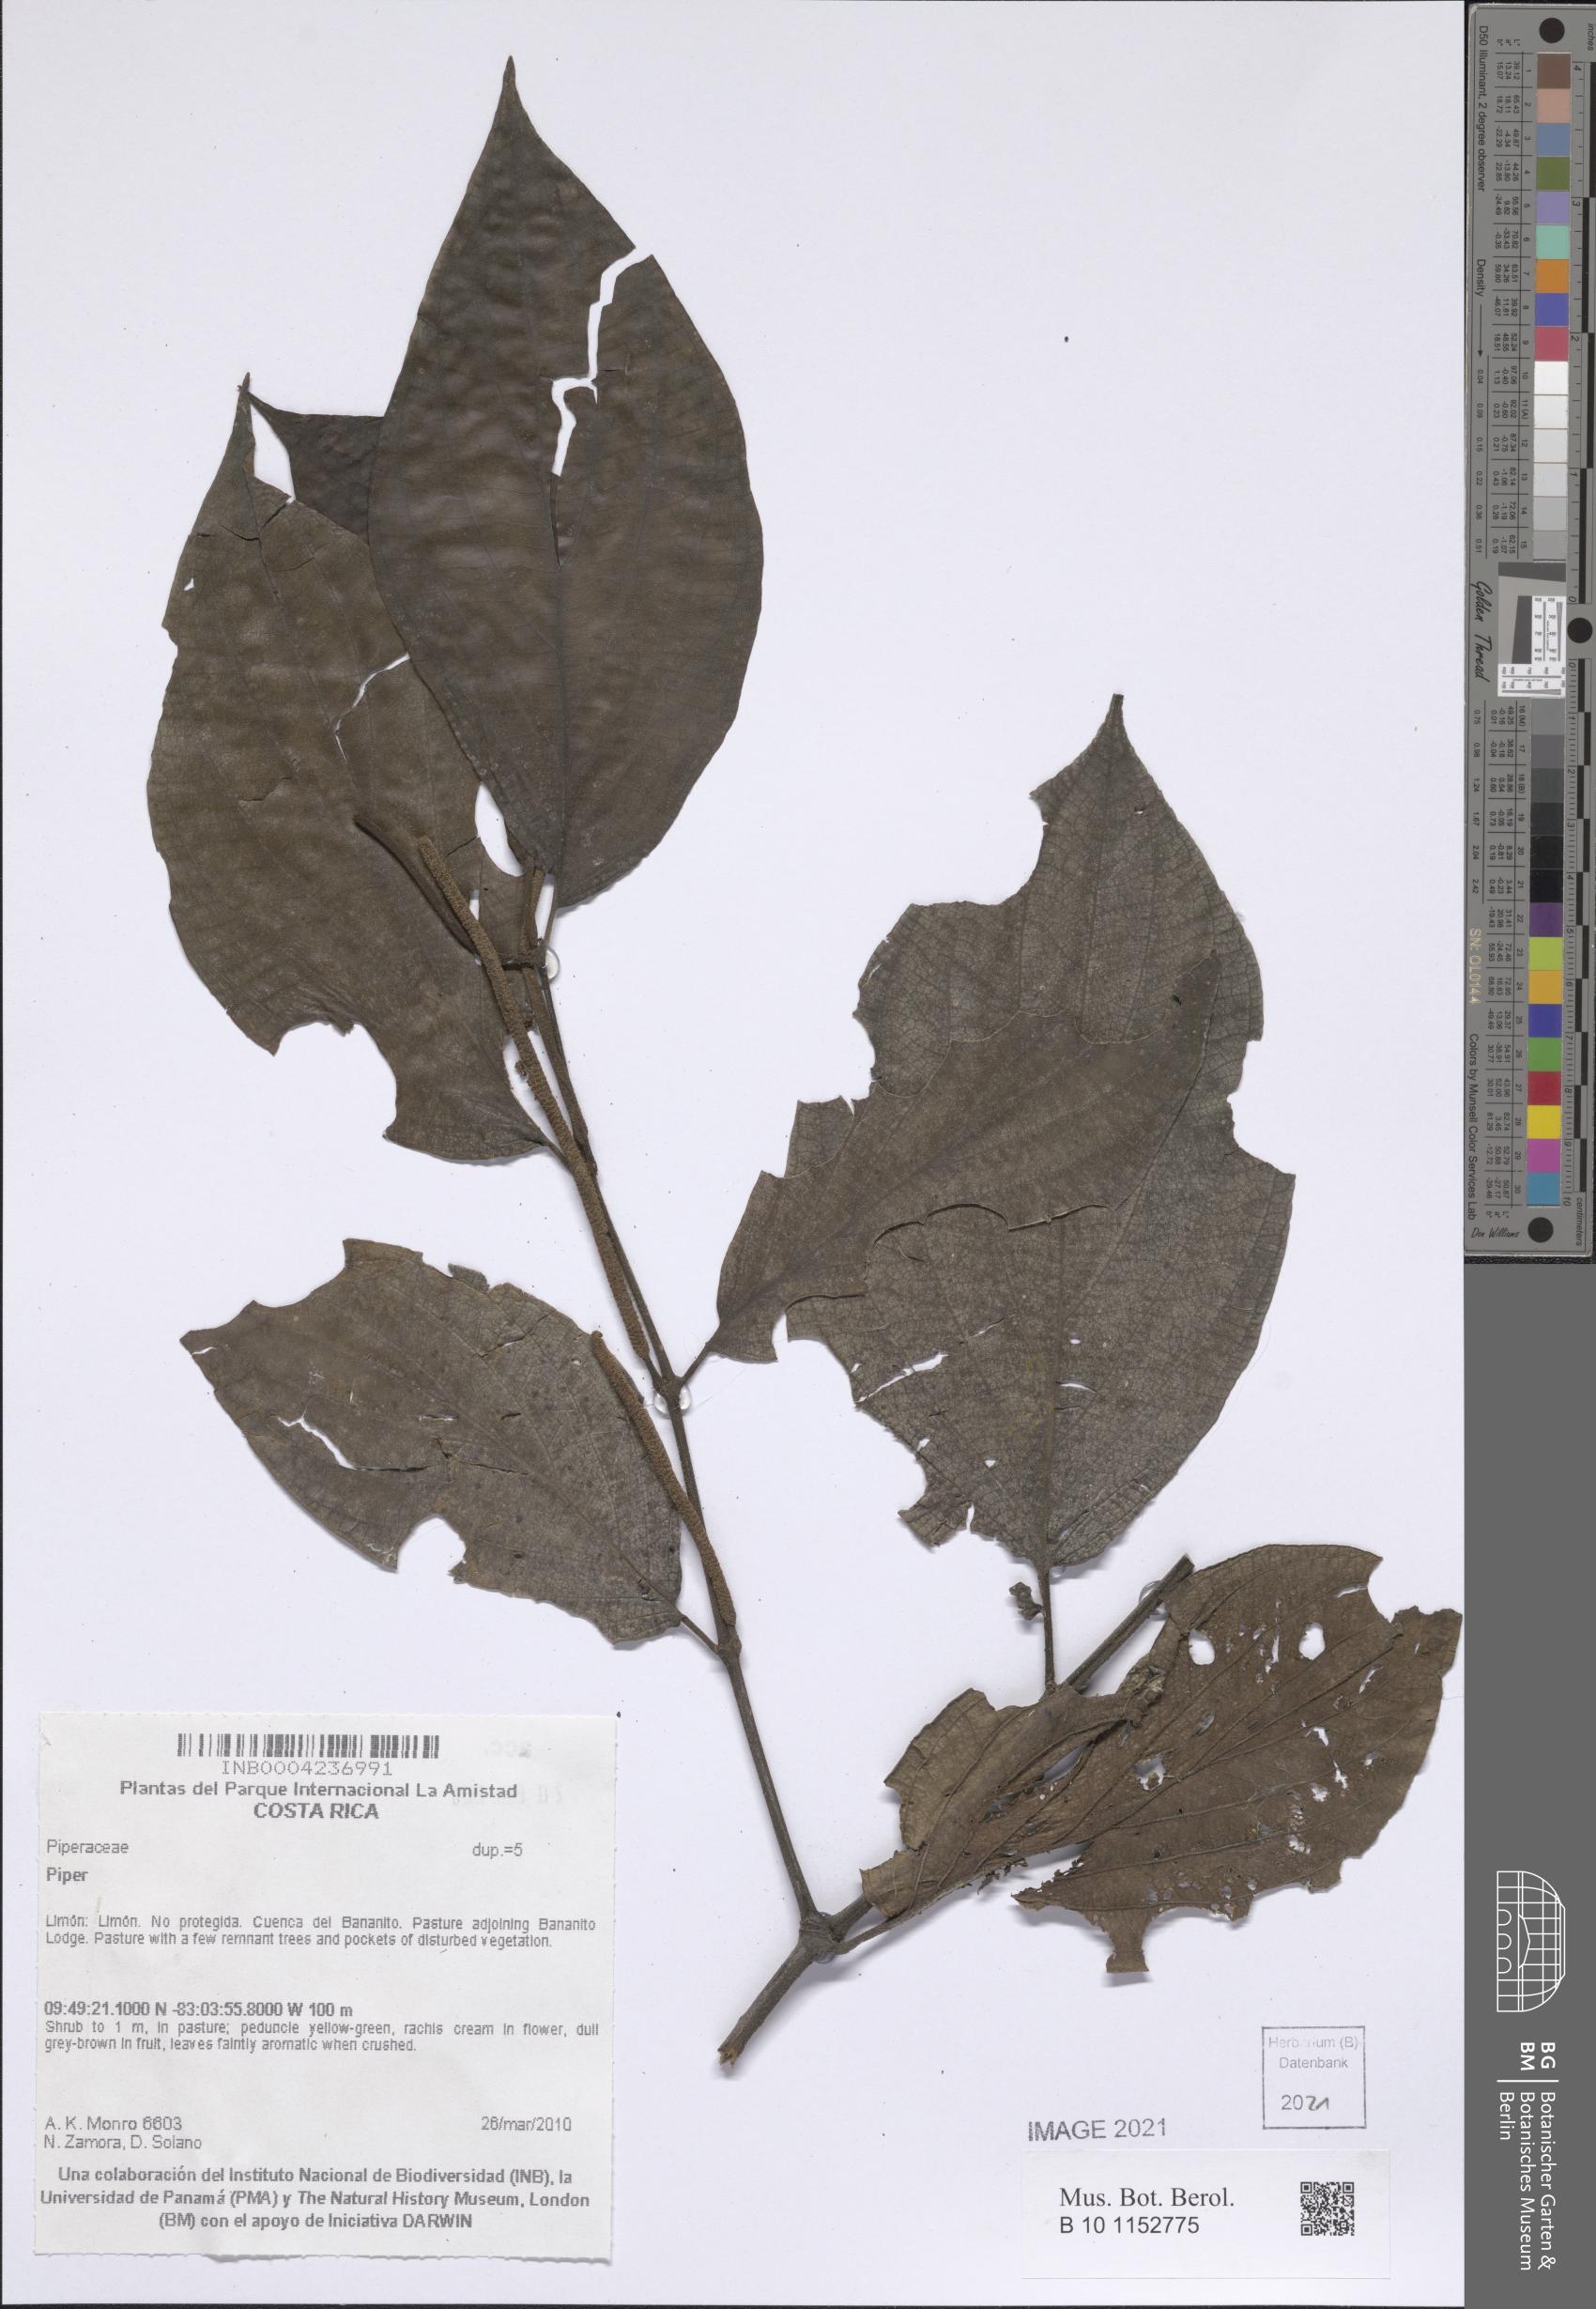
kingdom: Plantae
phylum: Tracheophyta
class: Magnoliopsida
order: Piperales
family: Piperaceae
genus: Piper
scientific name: Piper
